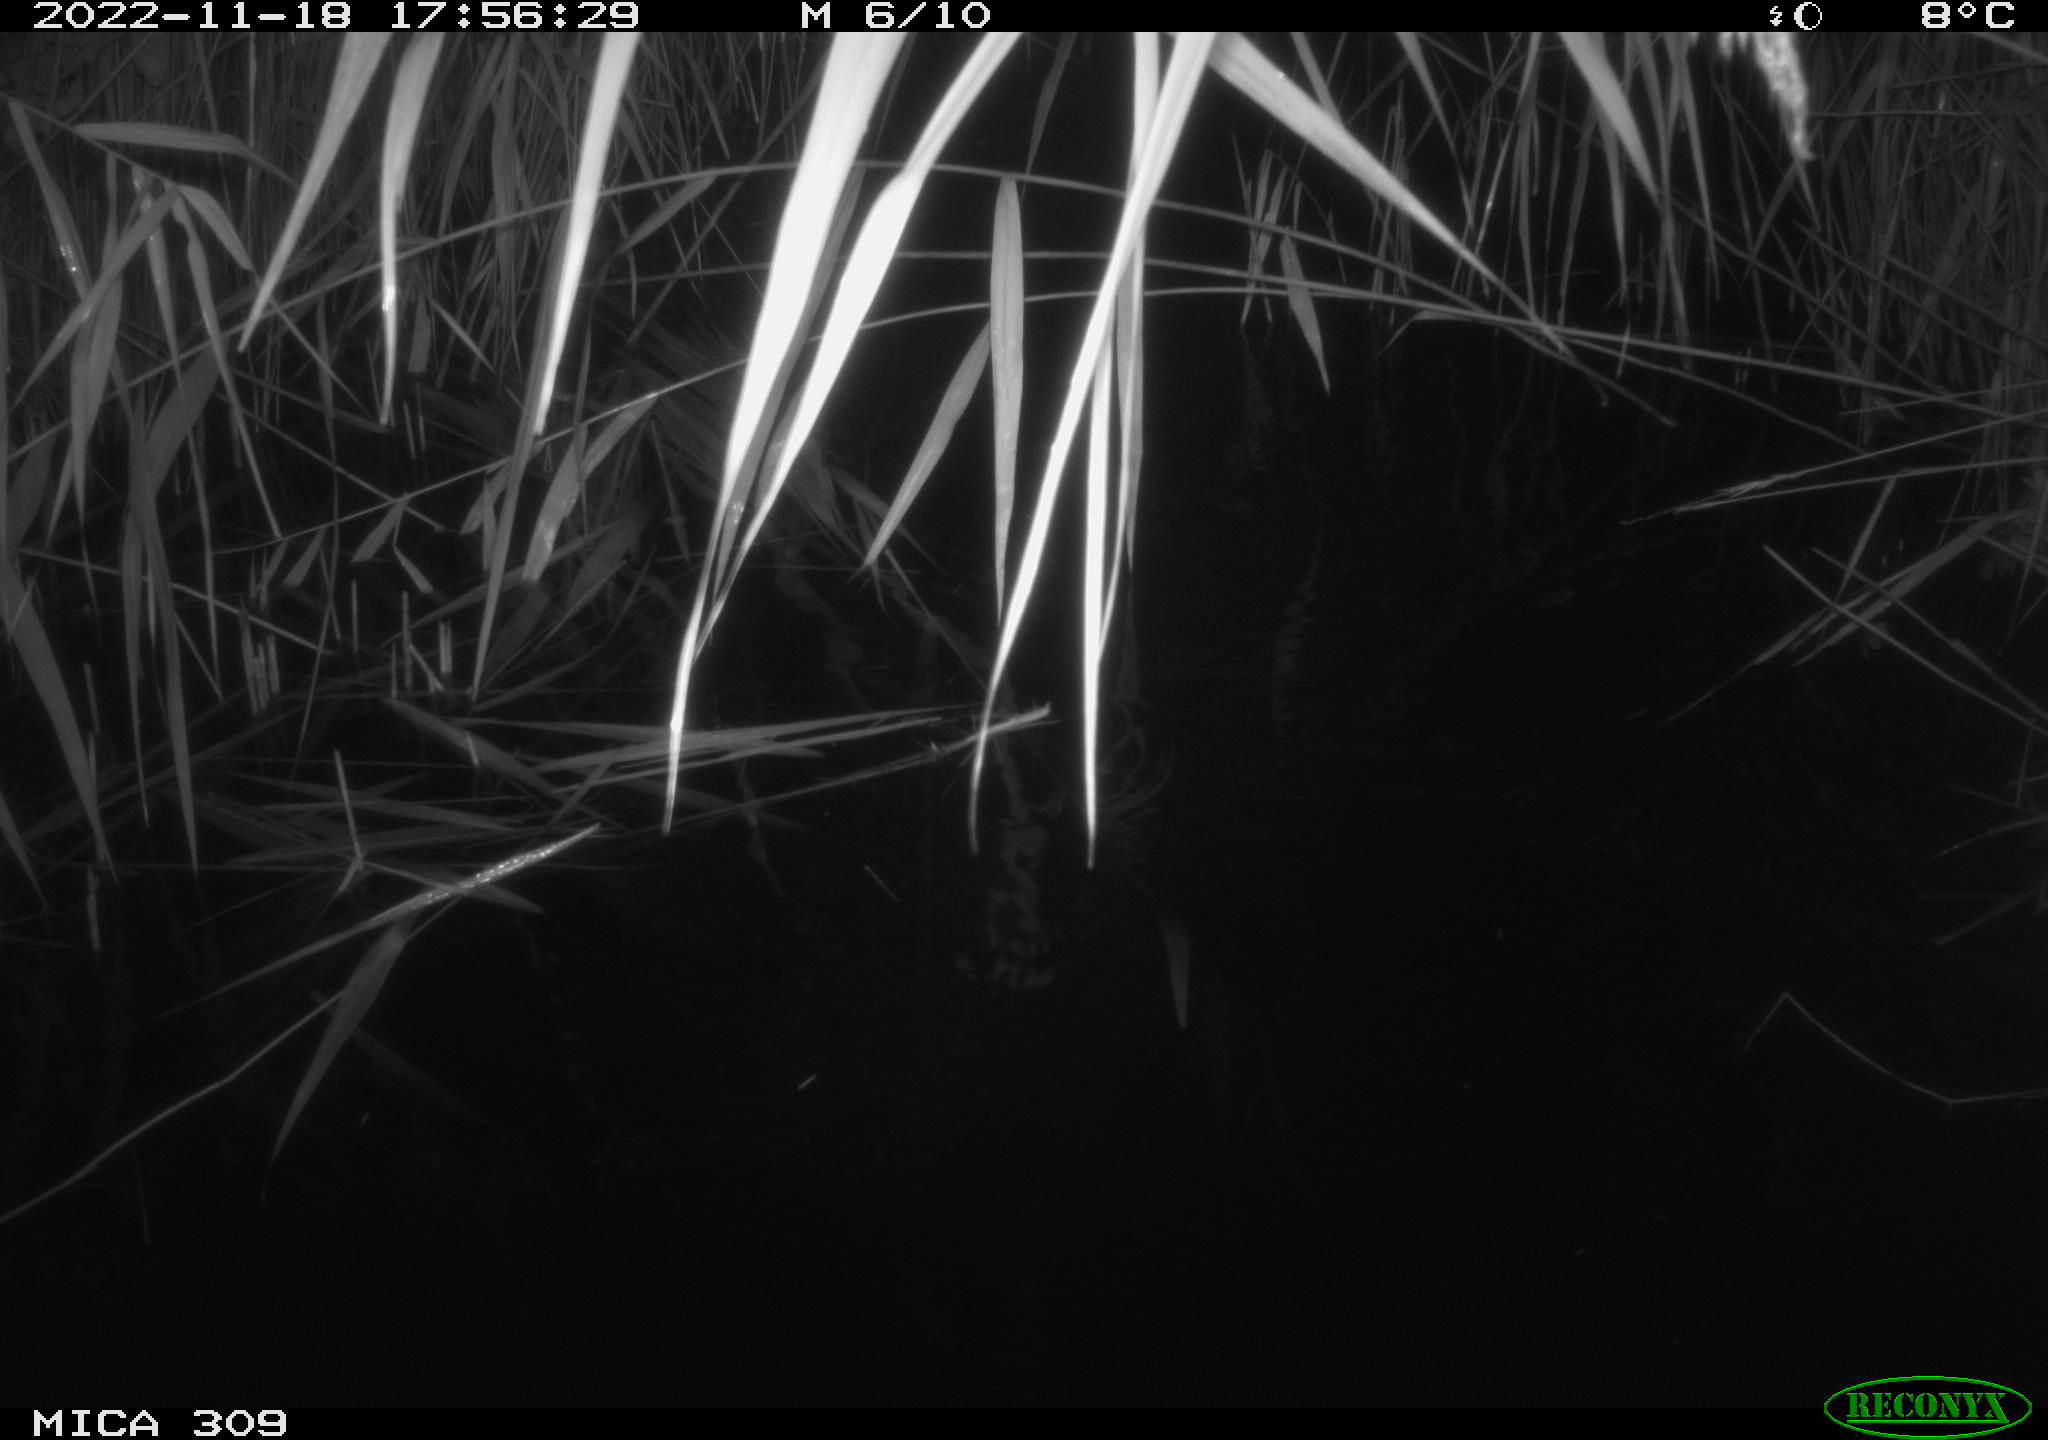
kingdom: Animalia
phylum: Chordata
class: Mammalia
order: Rodentia
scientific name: Rodentia
